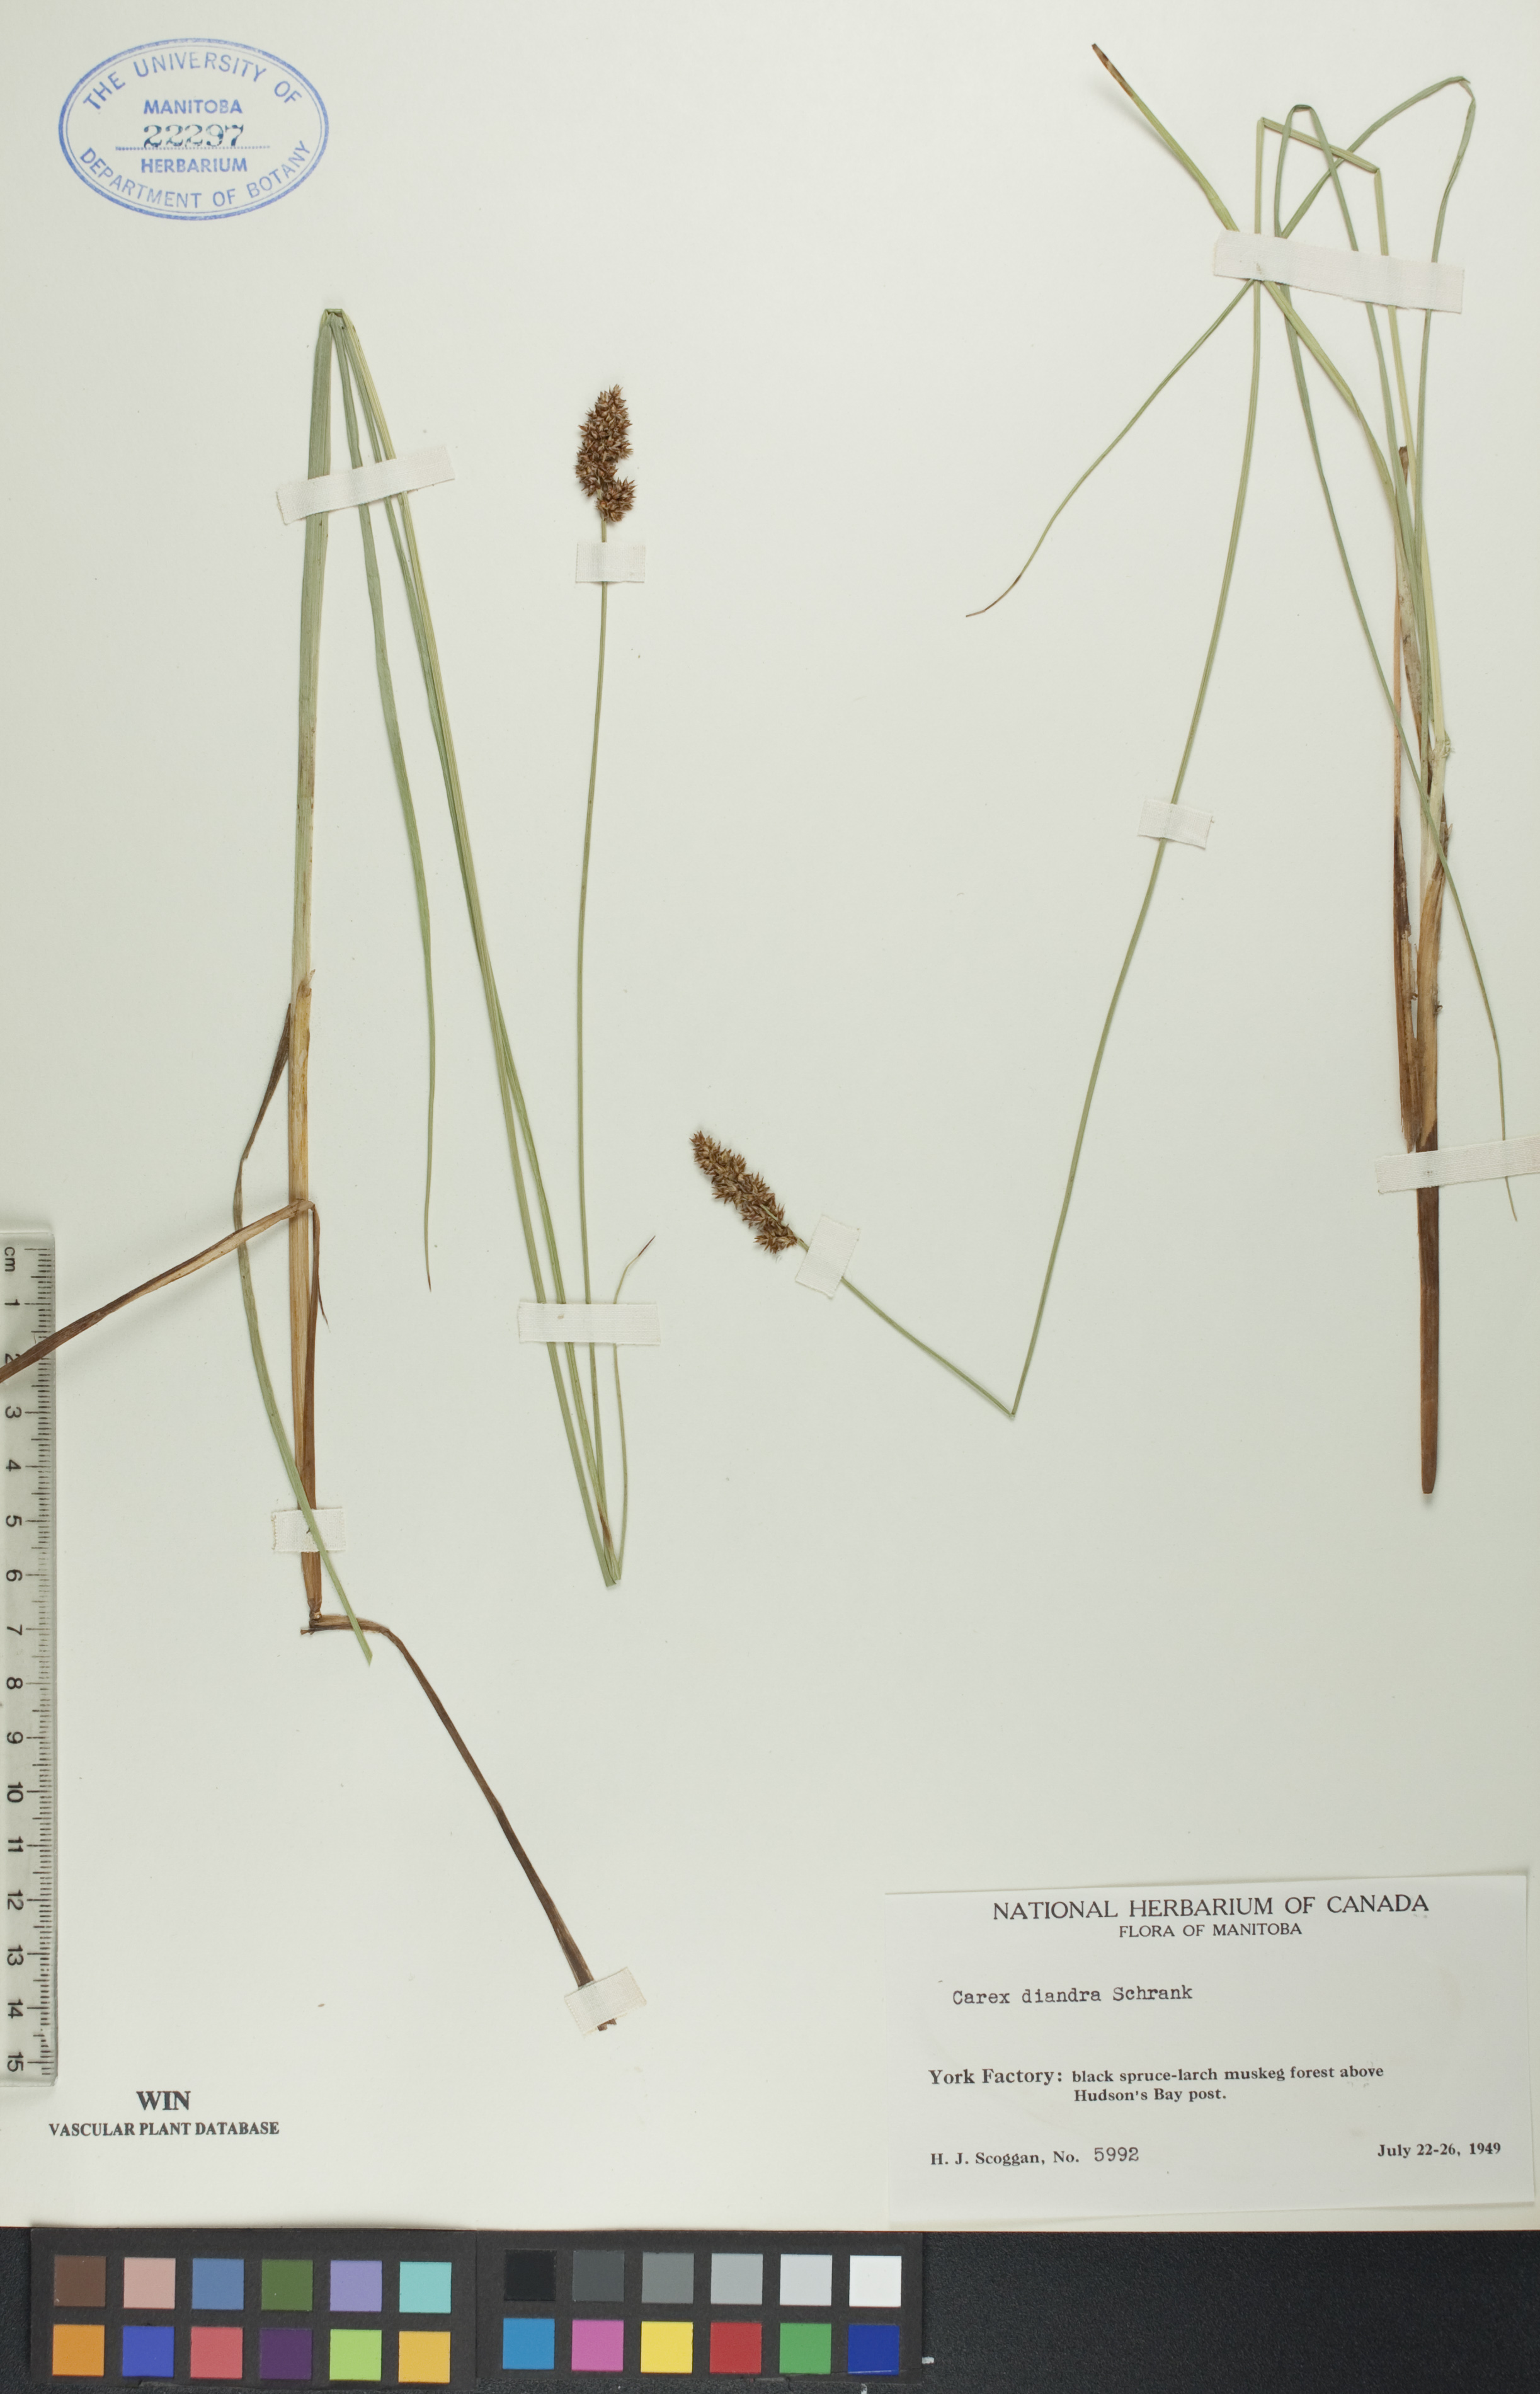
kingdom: Plantae
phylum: Tracheophyta
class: Liliopsida
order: Poales
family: Cyperaceae
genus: Carex
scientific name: Carex diandra
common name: Lesser tussock-sedge
